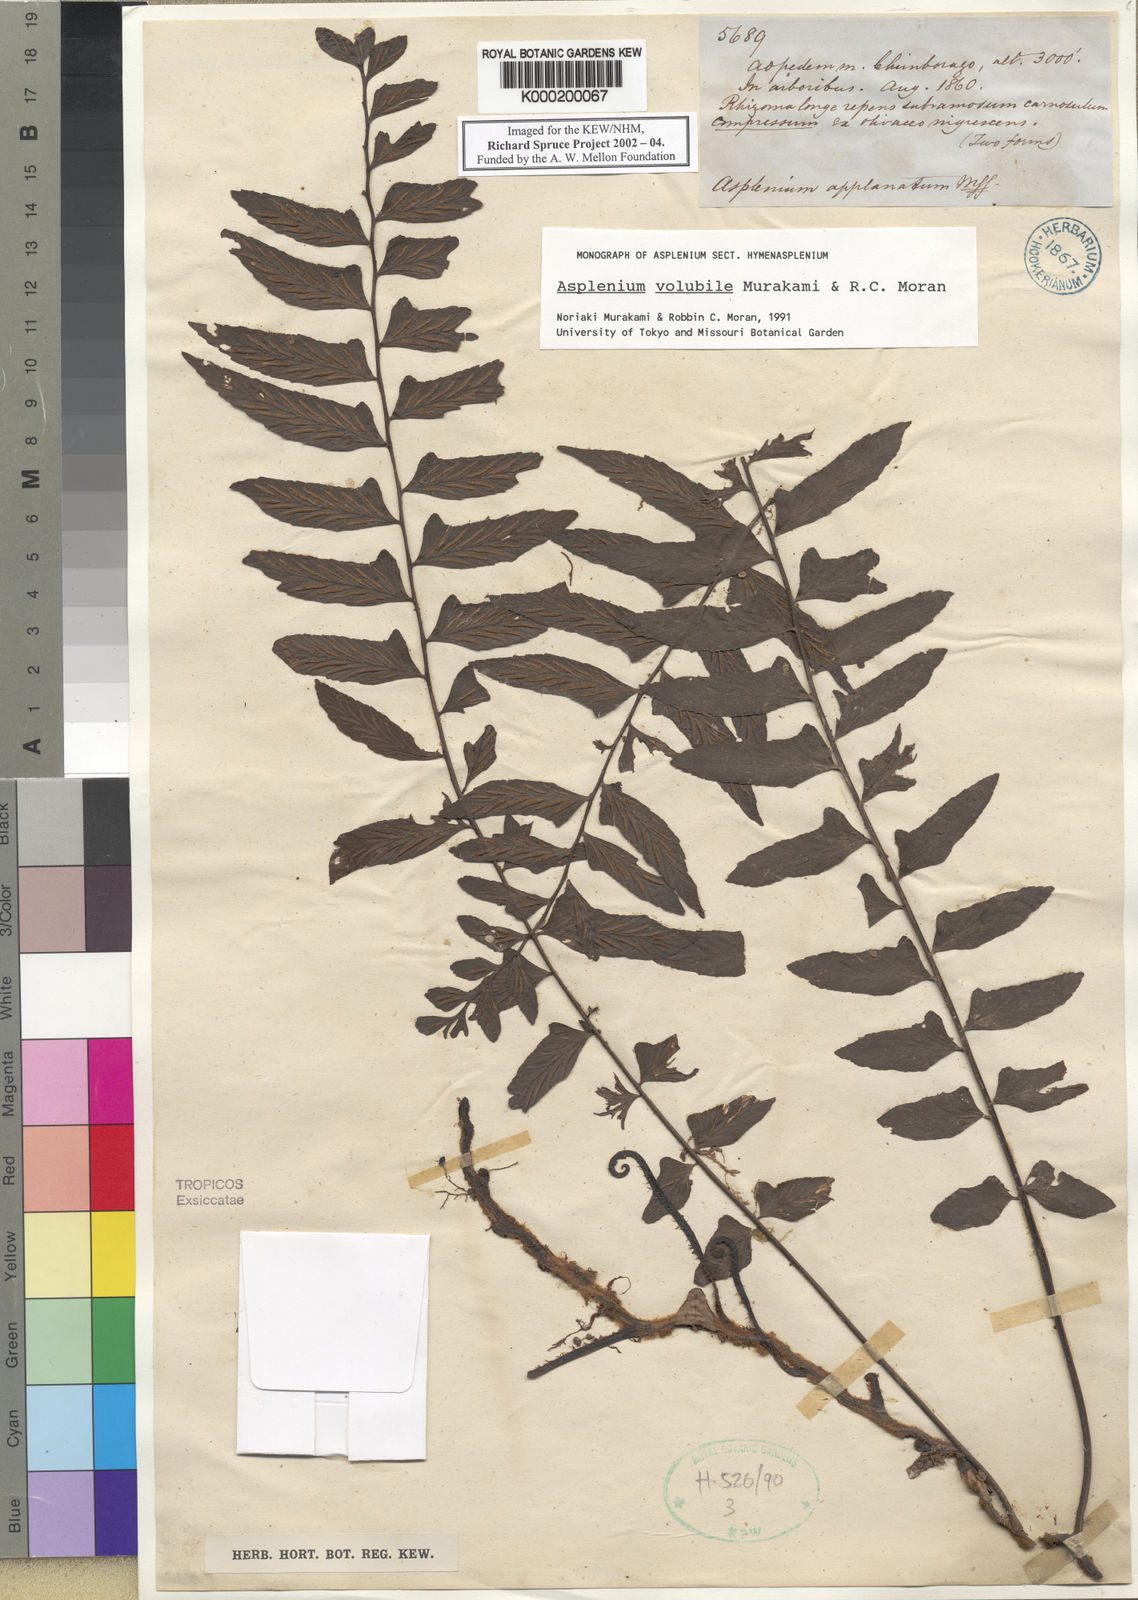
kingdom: Plantae
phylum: Tracheophyta
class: Polypodiopsida
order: Polypodiales
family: Aspleniaceae
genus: Hymenasplenium
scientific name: Hymenasplenium volubile
